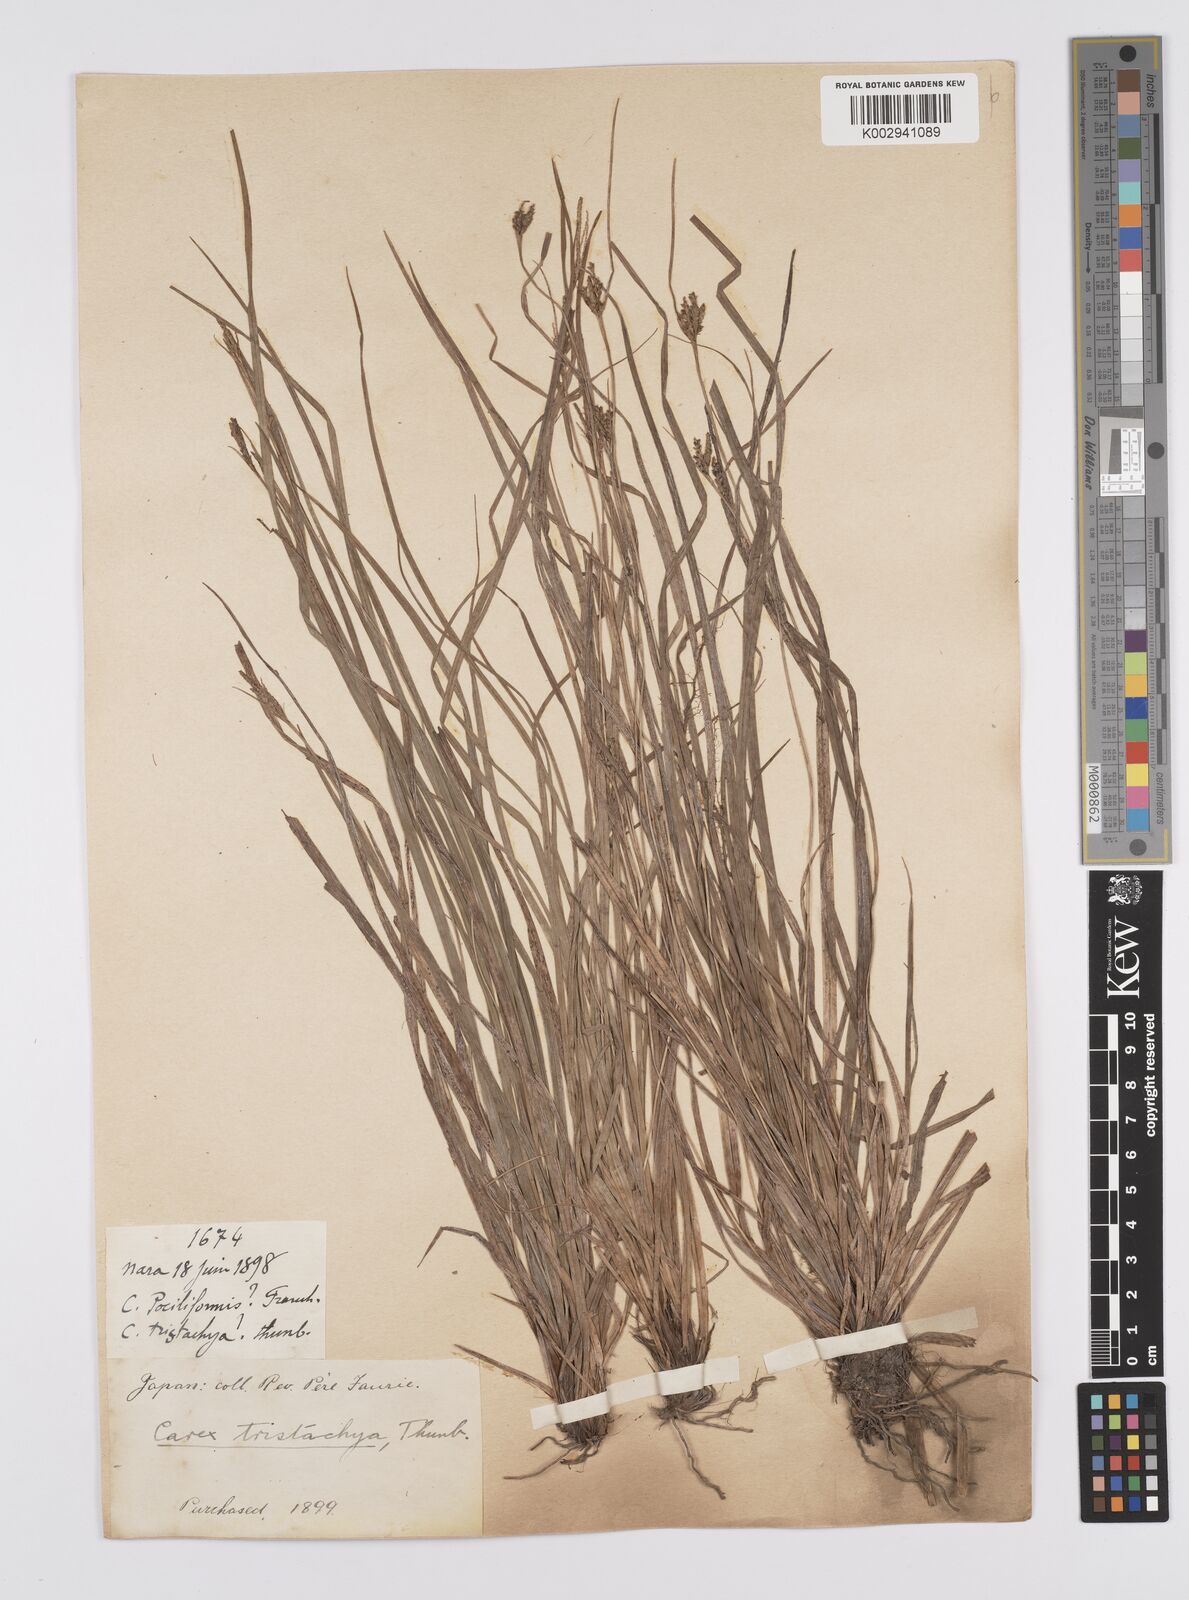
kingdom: Plantae
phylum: Tracheophyta
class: Liliopsida
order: Poales
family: Cyperaceae
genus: Carex
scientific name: Carex tristachya
